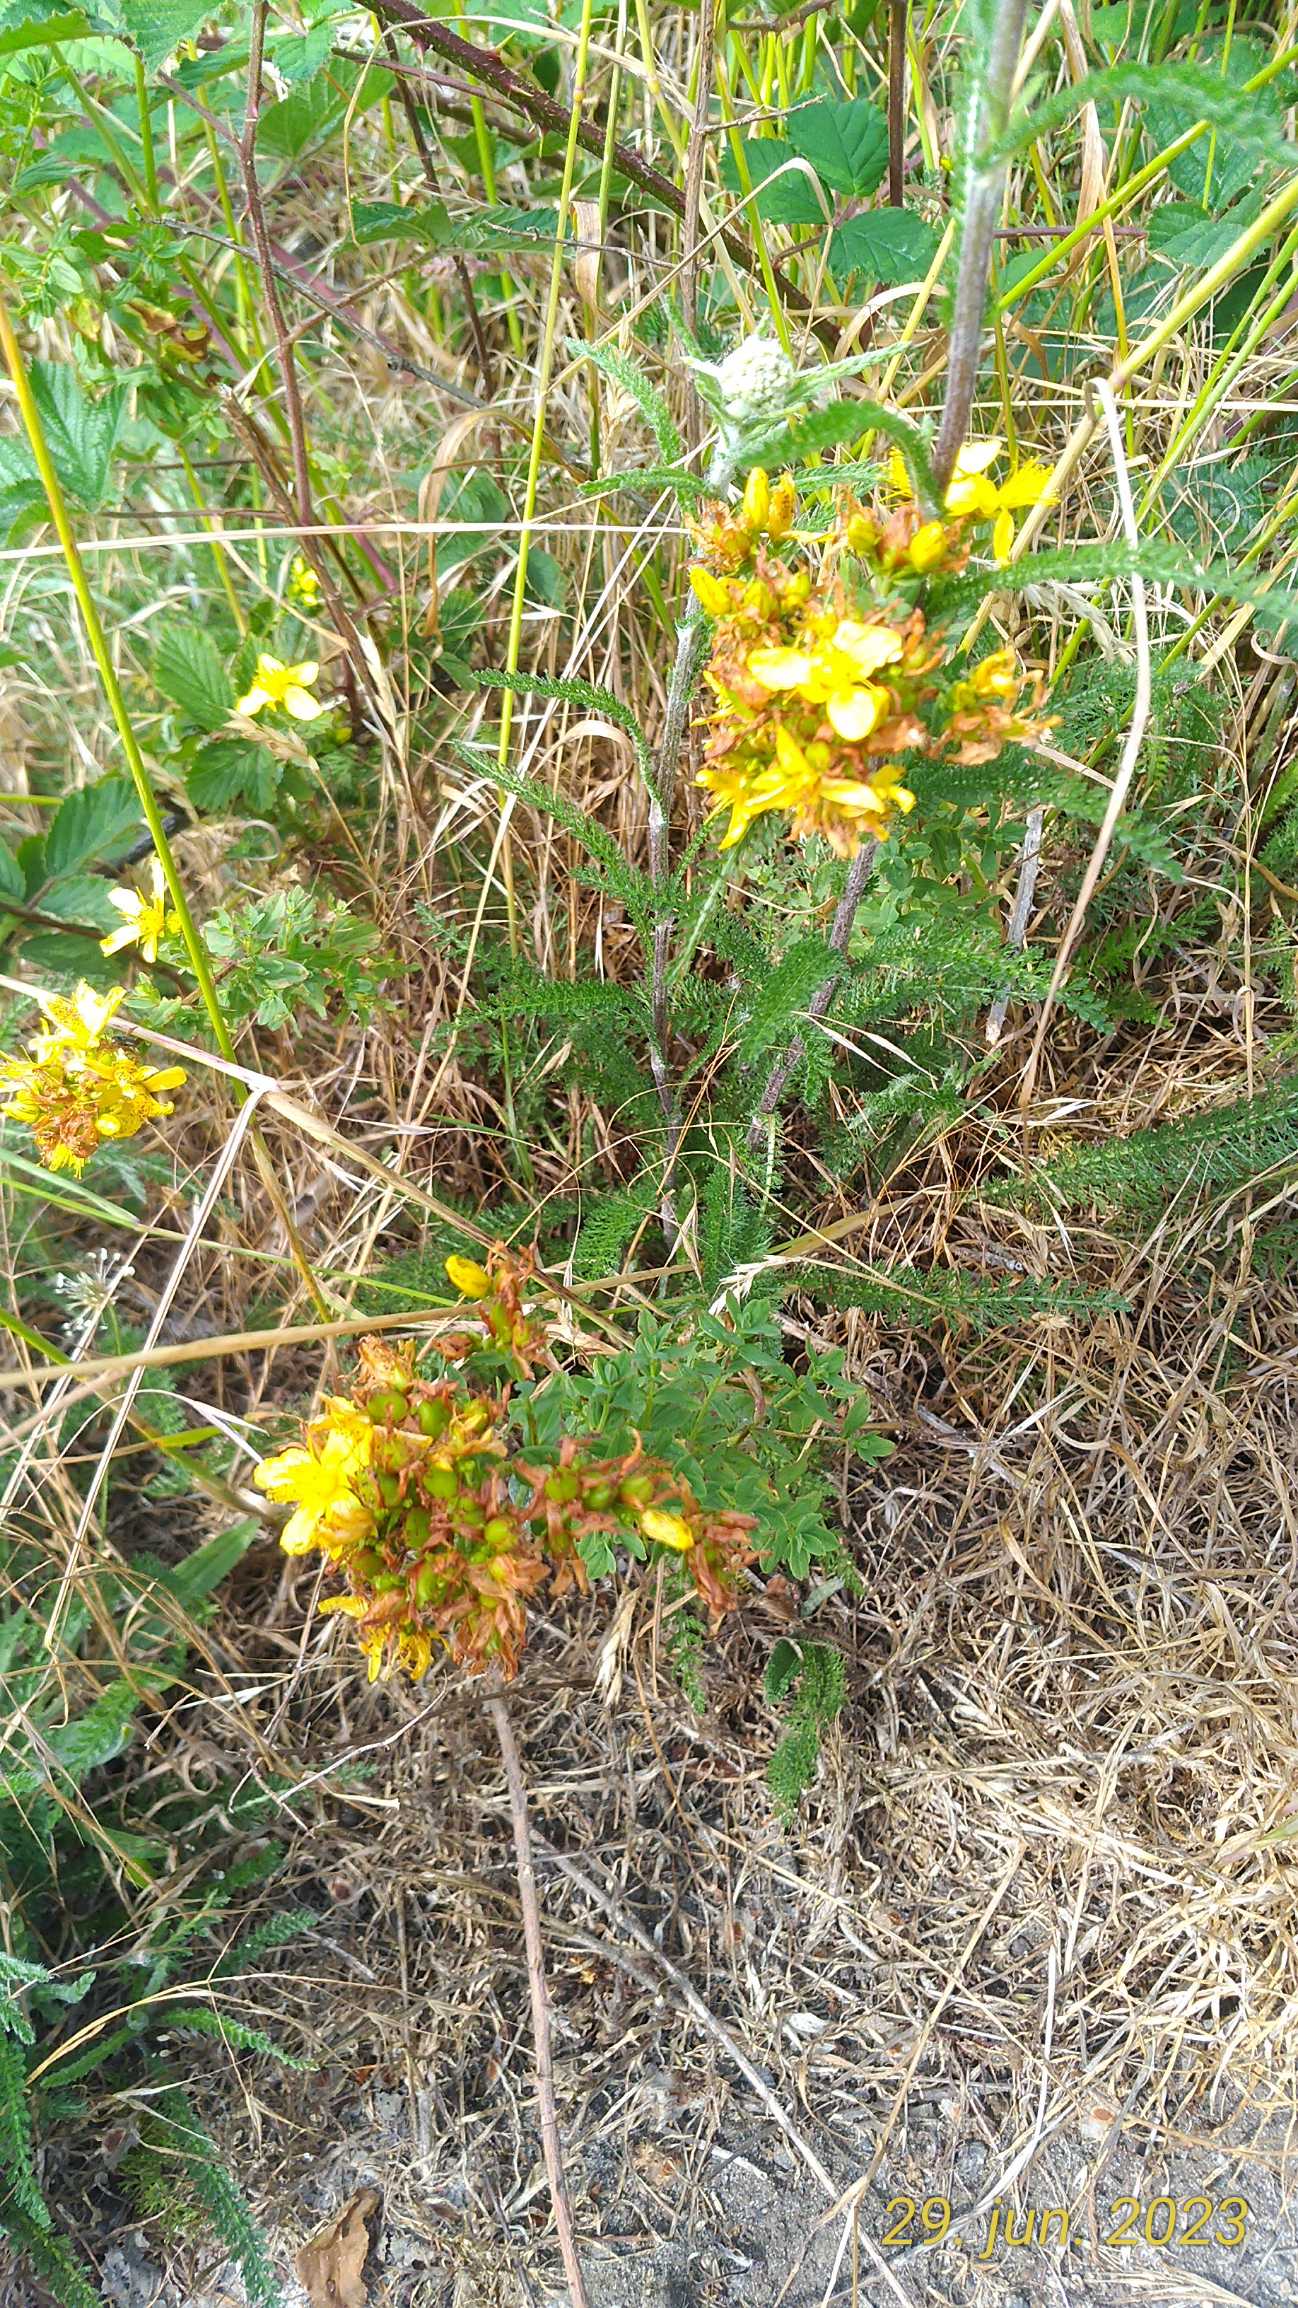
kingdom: Plantae
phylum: Tracheophyta
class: Magnoliopsida
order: Malpighiales
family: Hypericaceae
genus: Hypericum
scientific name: Hypericum
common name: Perikonslægten
